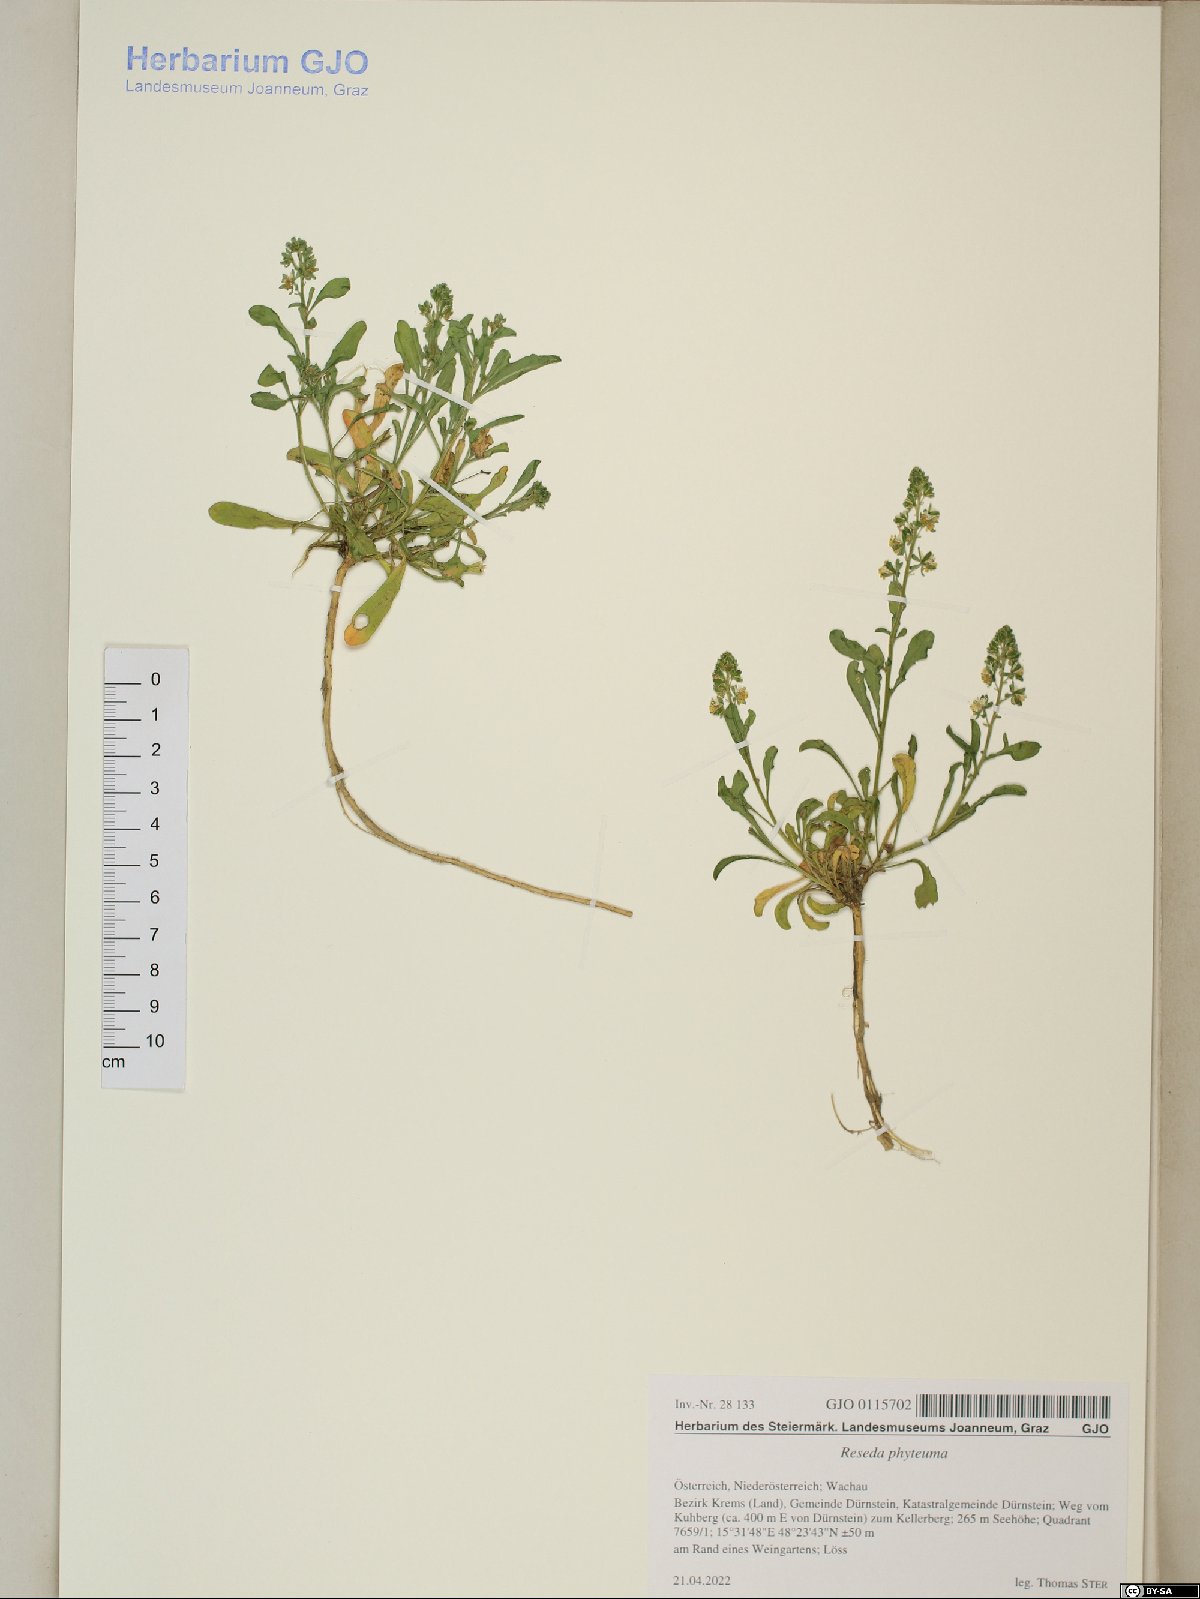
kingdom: Plantae
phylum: Tracheophyta
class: Magnoliopsida
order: Brassicales
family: Resedaceae
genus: Reseda
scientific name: Reseda phyteuma
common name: Corn mignonette
